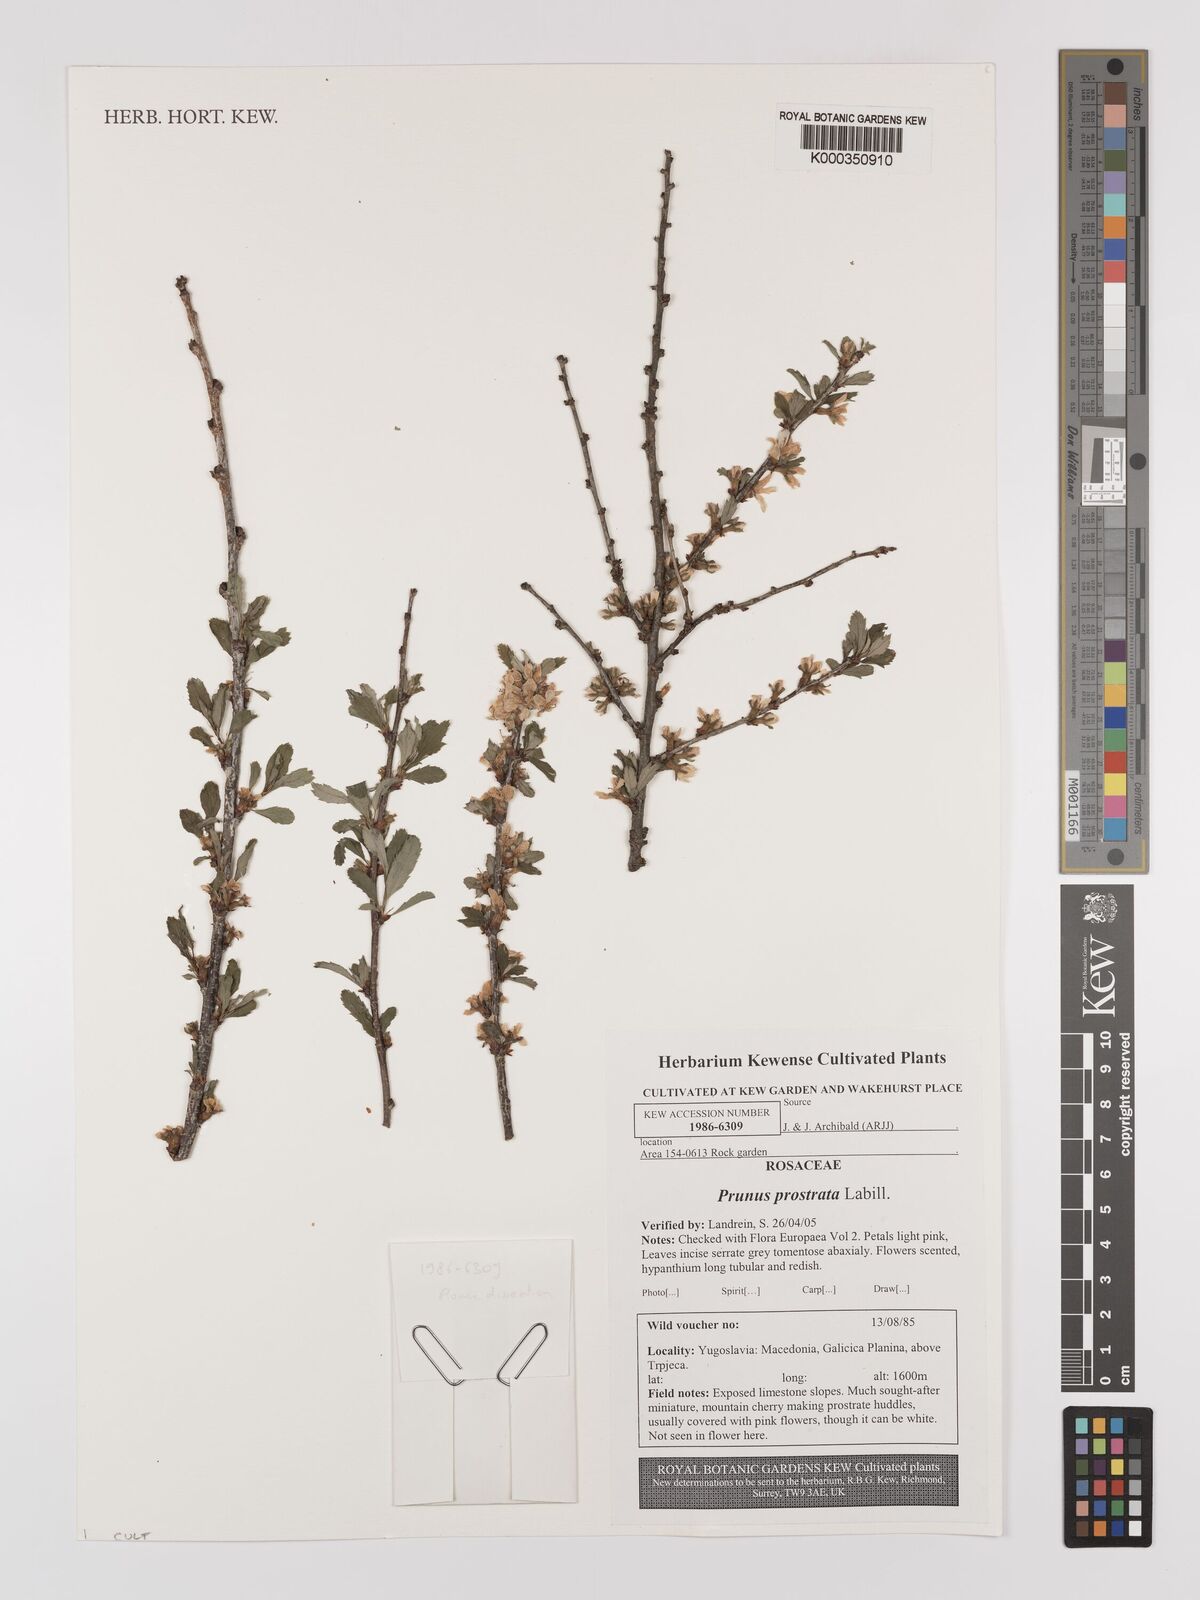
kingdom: Plantae
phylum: Tracheophyta
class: Magnoliopsida
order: Rosales
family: Rosaceae
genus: Prunus
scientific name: Prunus prostrata
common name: Mountain cherry
